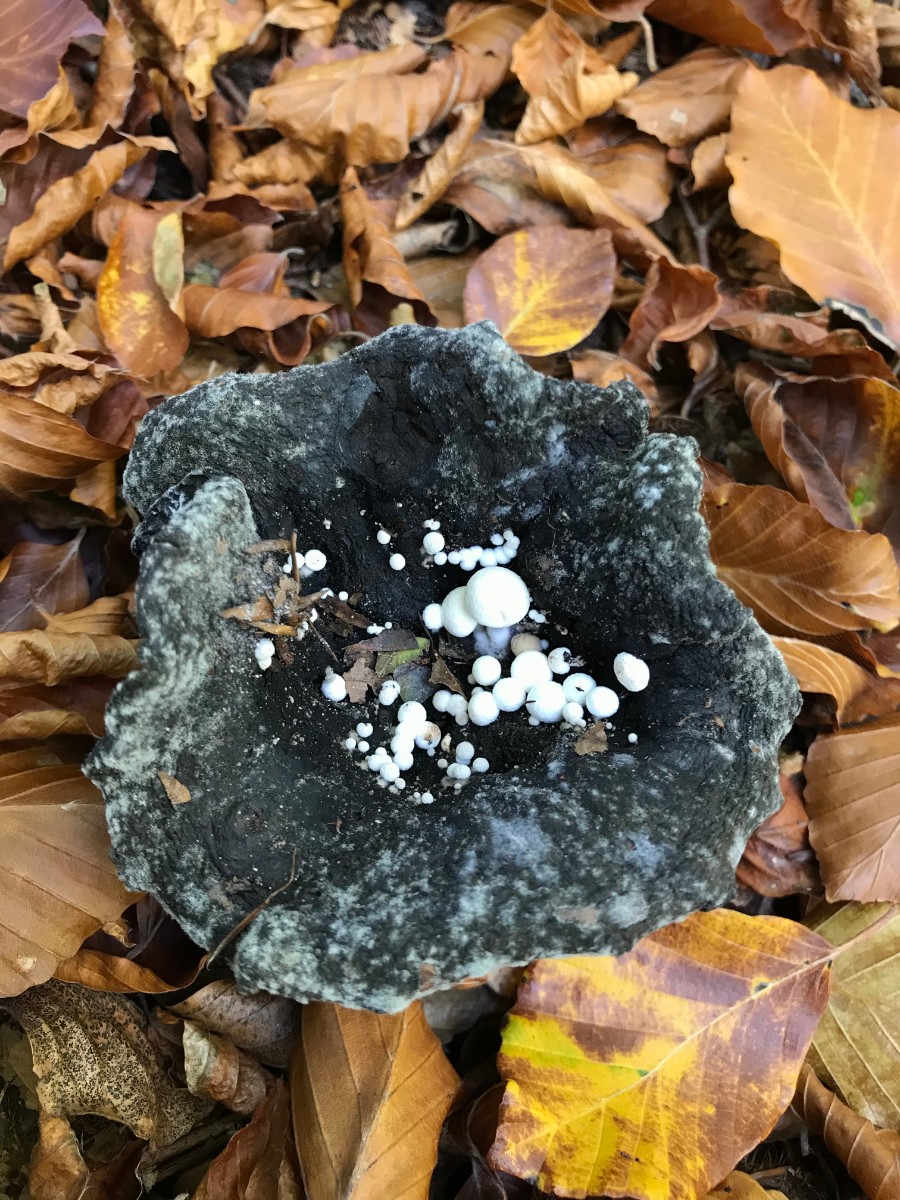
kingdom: Fungi
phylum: Basidiomycota
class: Agaricomycetes
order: Agaricales
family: Lyophyllaceae
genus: Asterophora
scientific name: Asterophora parasitica
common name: grå snyltehat
